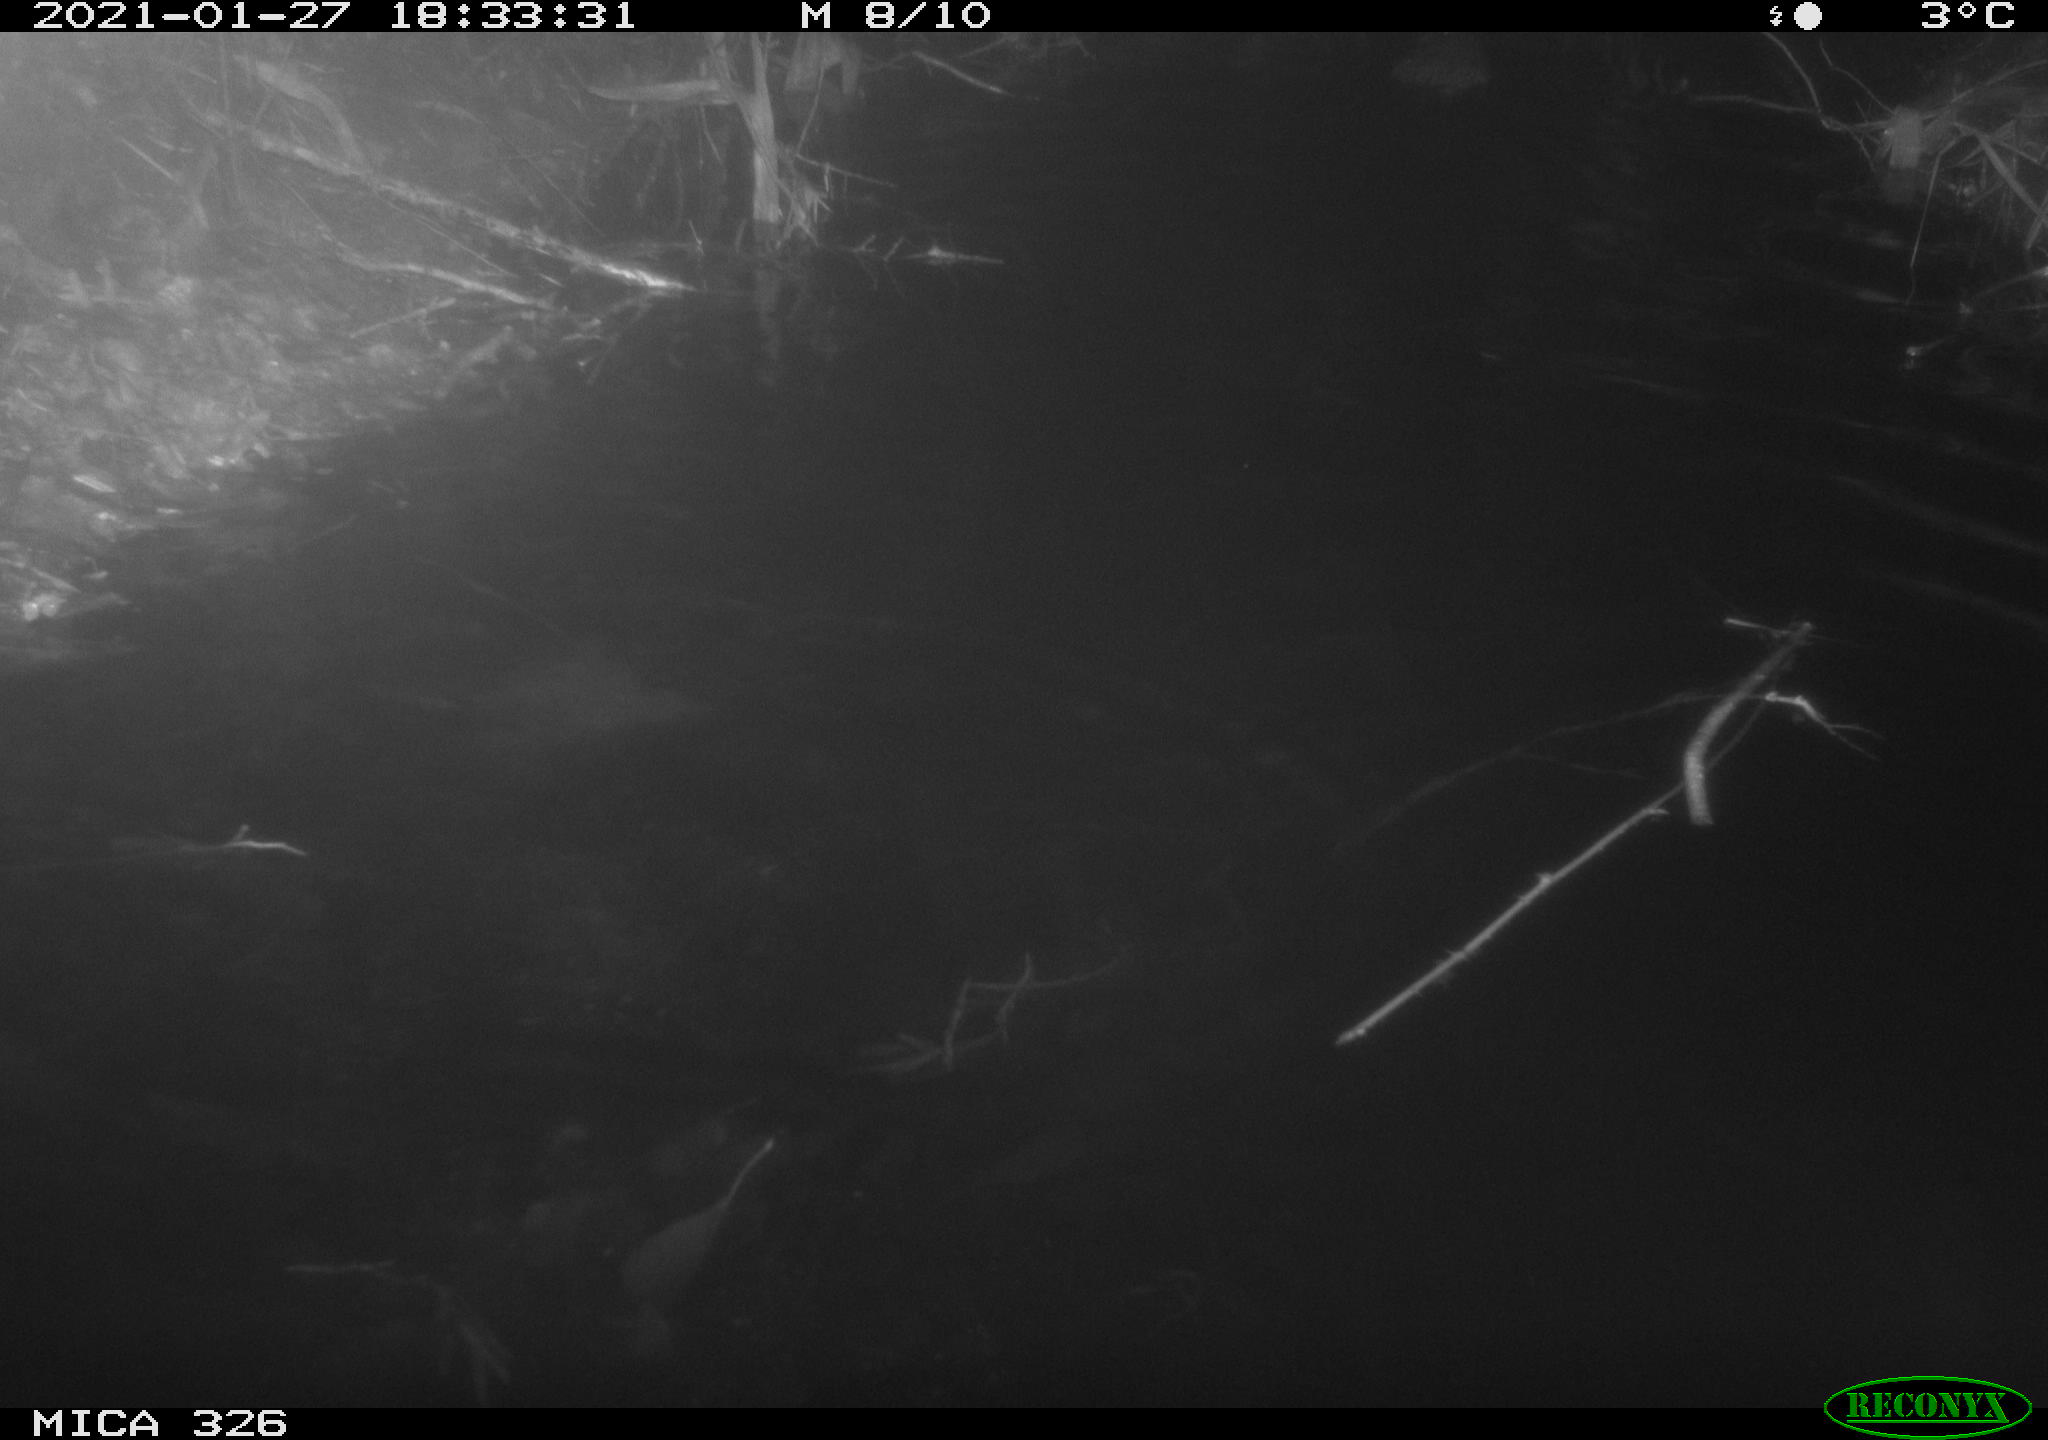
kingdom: Animalia
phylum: Chordata
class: Mammalia
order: Rodentia
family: Cricetidae
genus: Ondatra
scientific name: Ondatra zibethicus
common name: Muskrat
